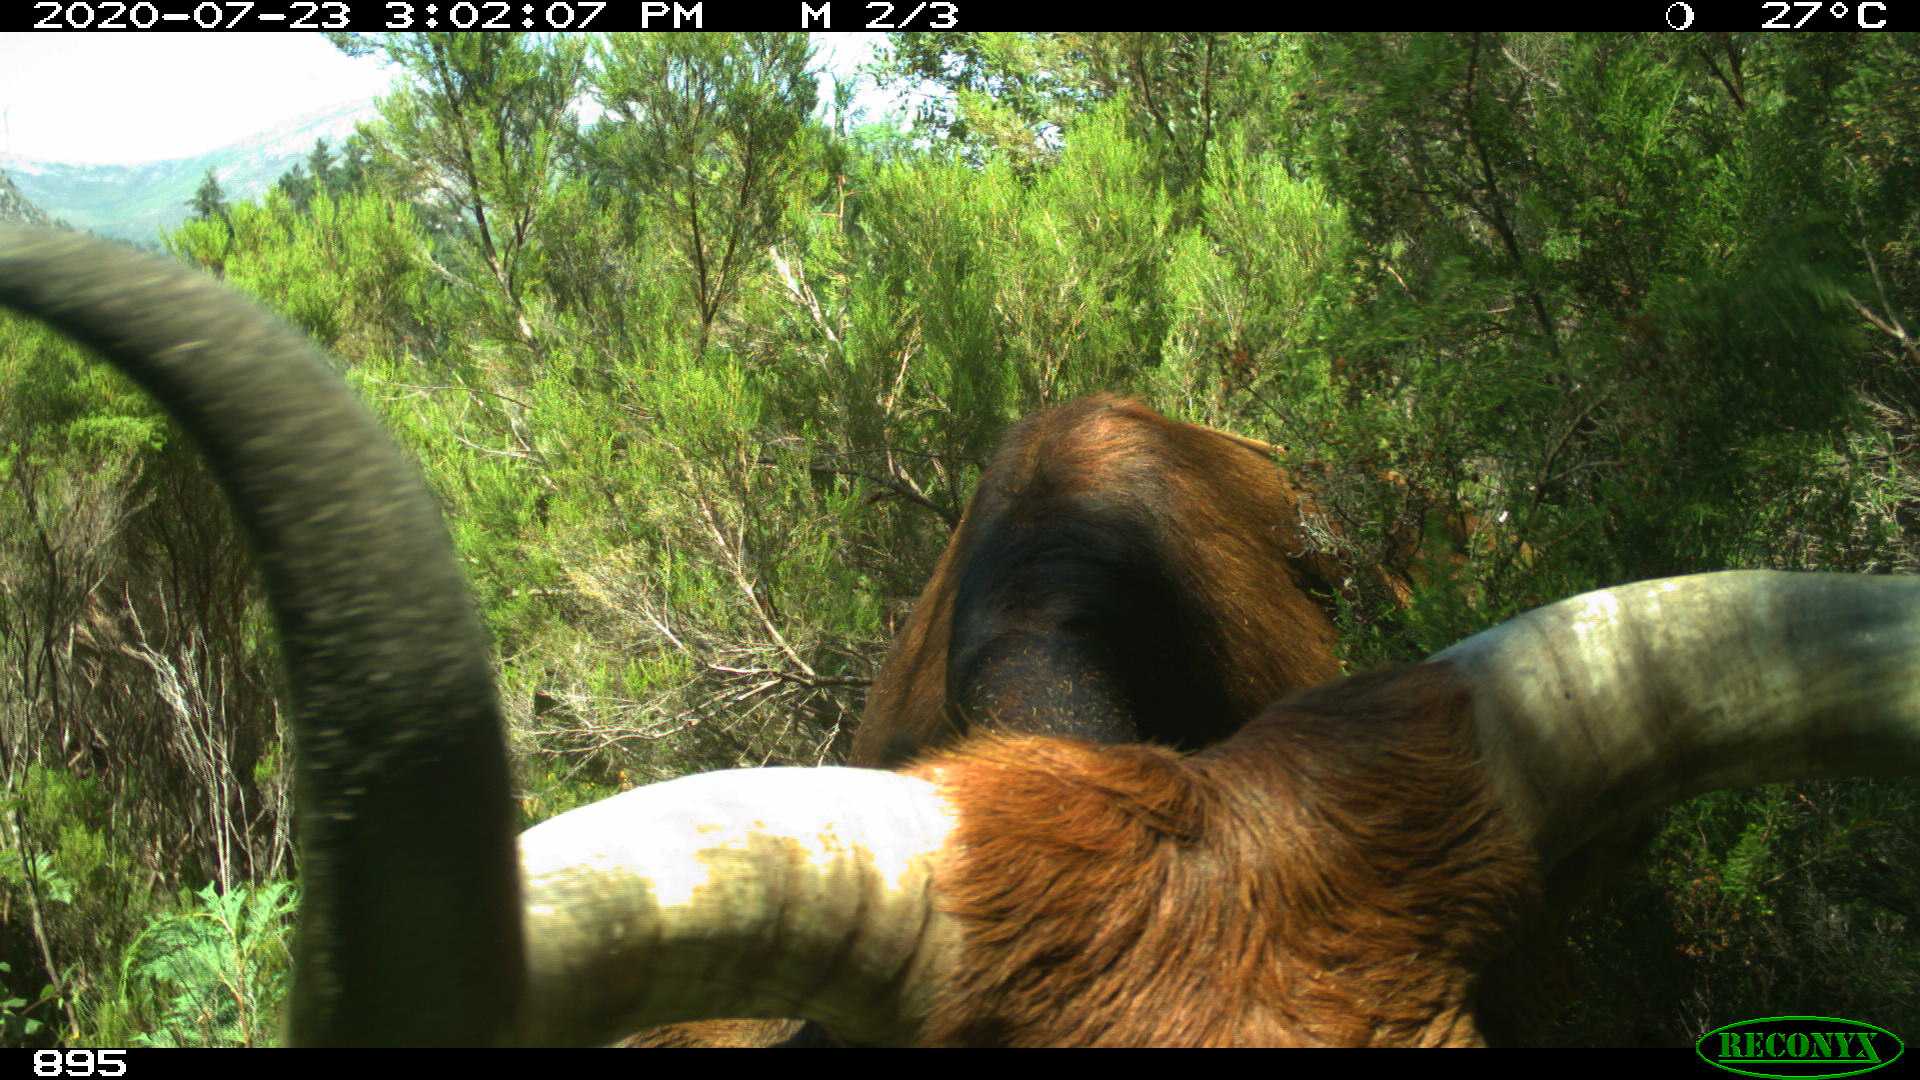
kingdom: Animalia
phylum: Chordata
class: Mammalia
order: Artiodactyla
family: Bovidae
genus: Bos
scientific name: Bos taurus
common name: Domesticated cattle
